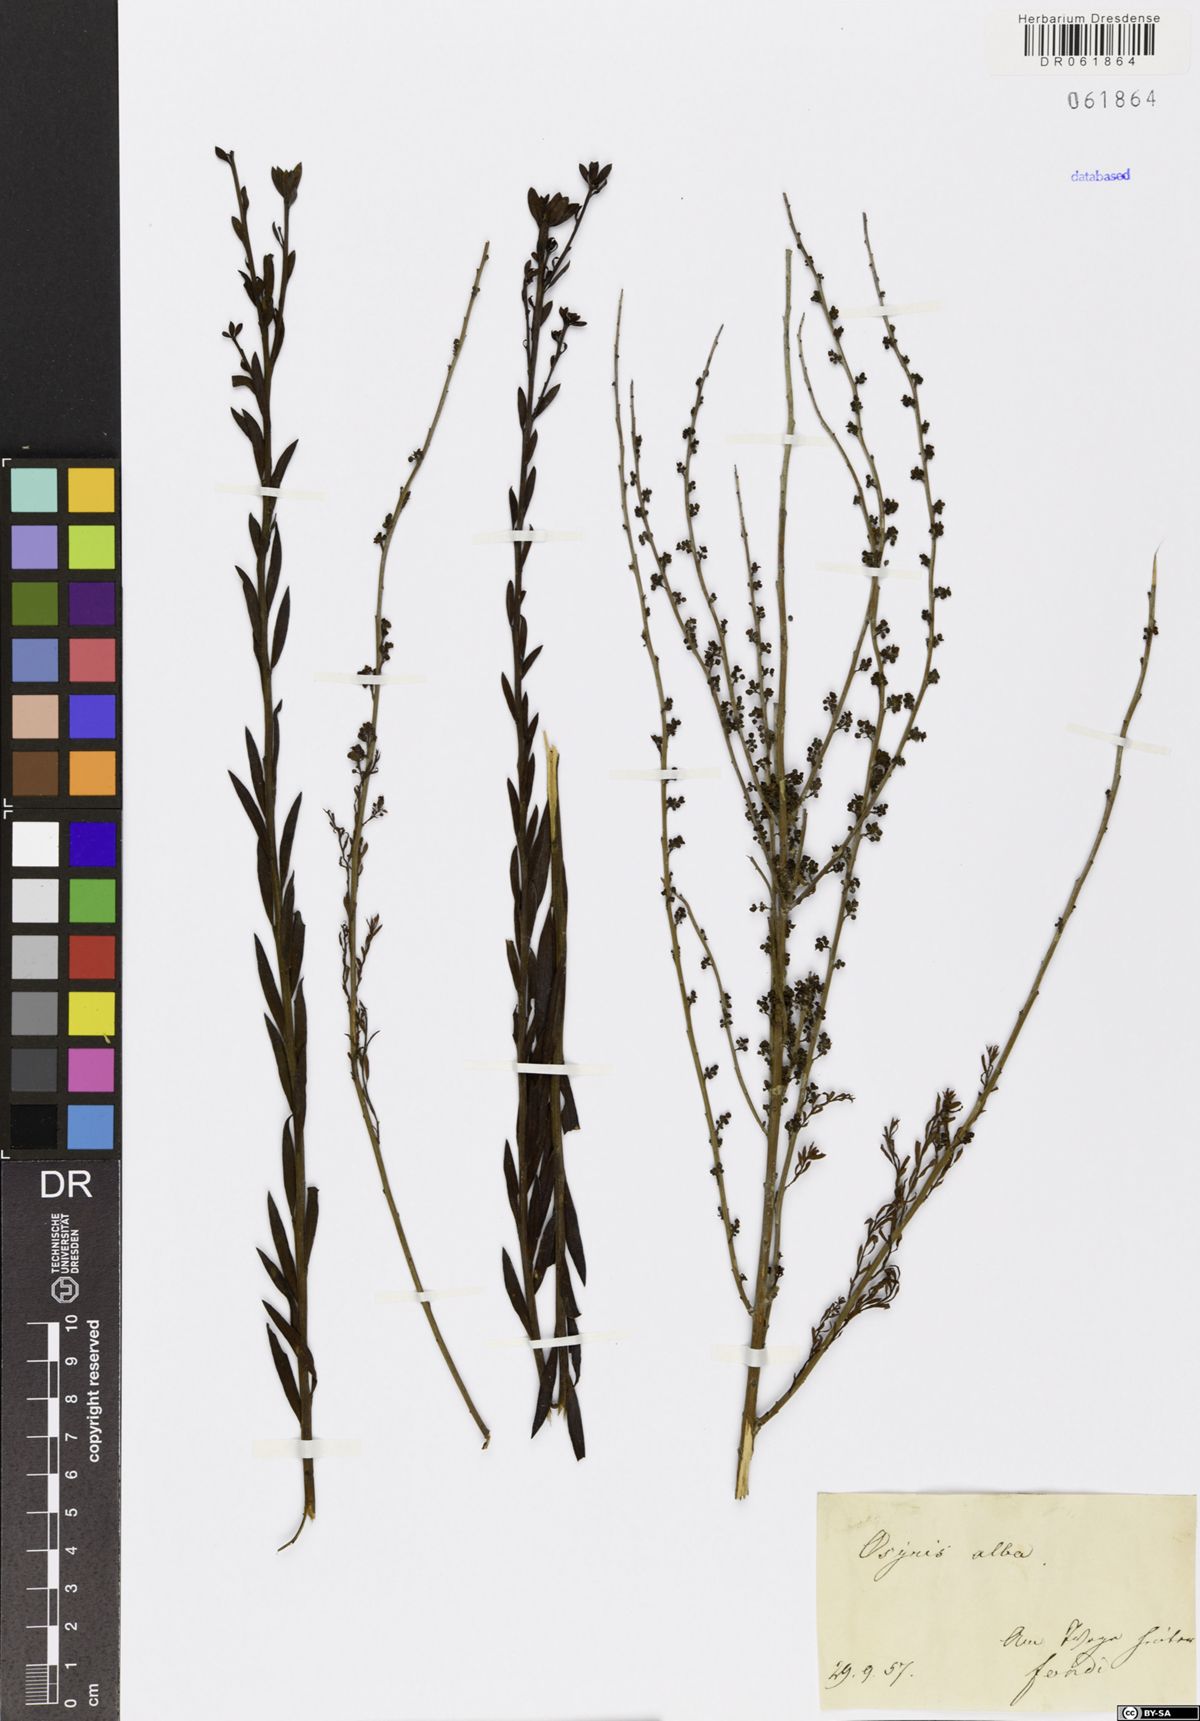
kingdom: Plantae
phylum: Tracheophyta
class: Magnoliopsida
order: Santalales
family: Santalaceae
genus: Osyris
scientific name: Osyris alba
